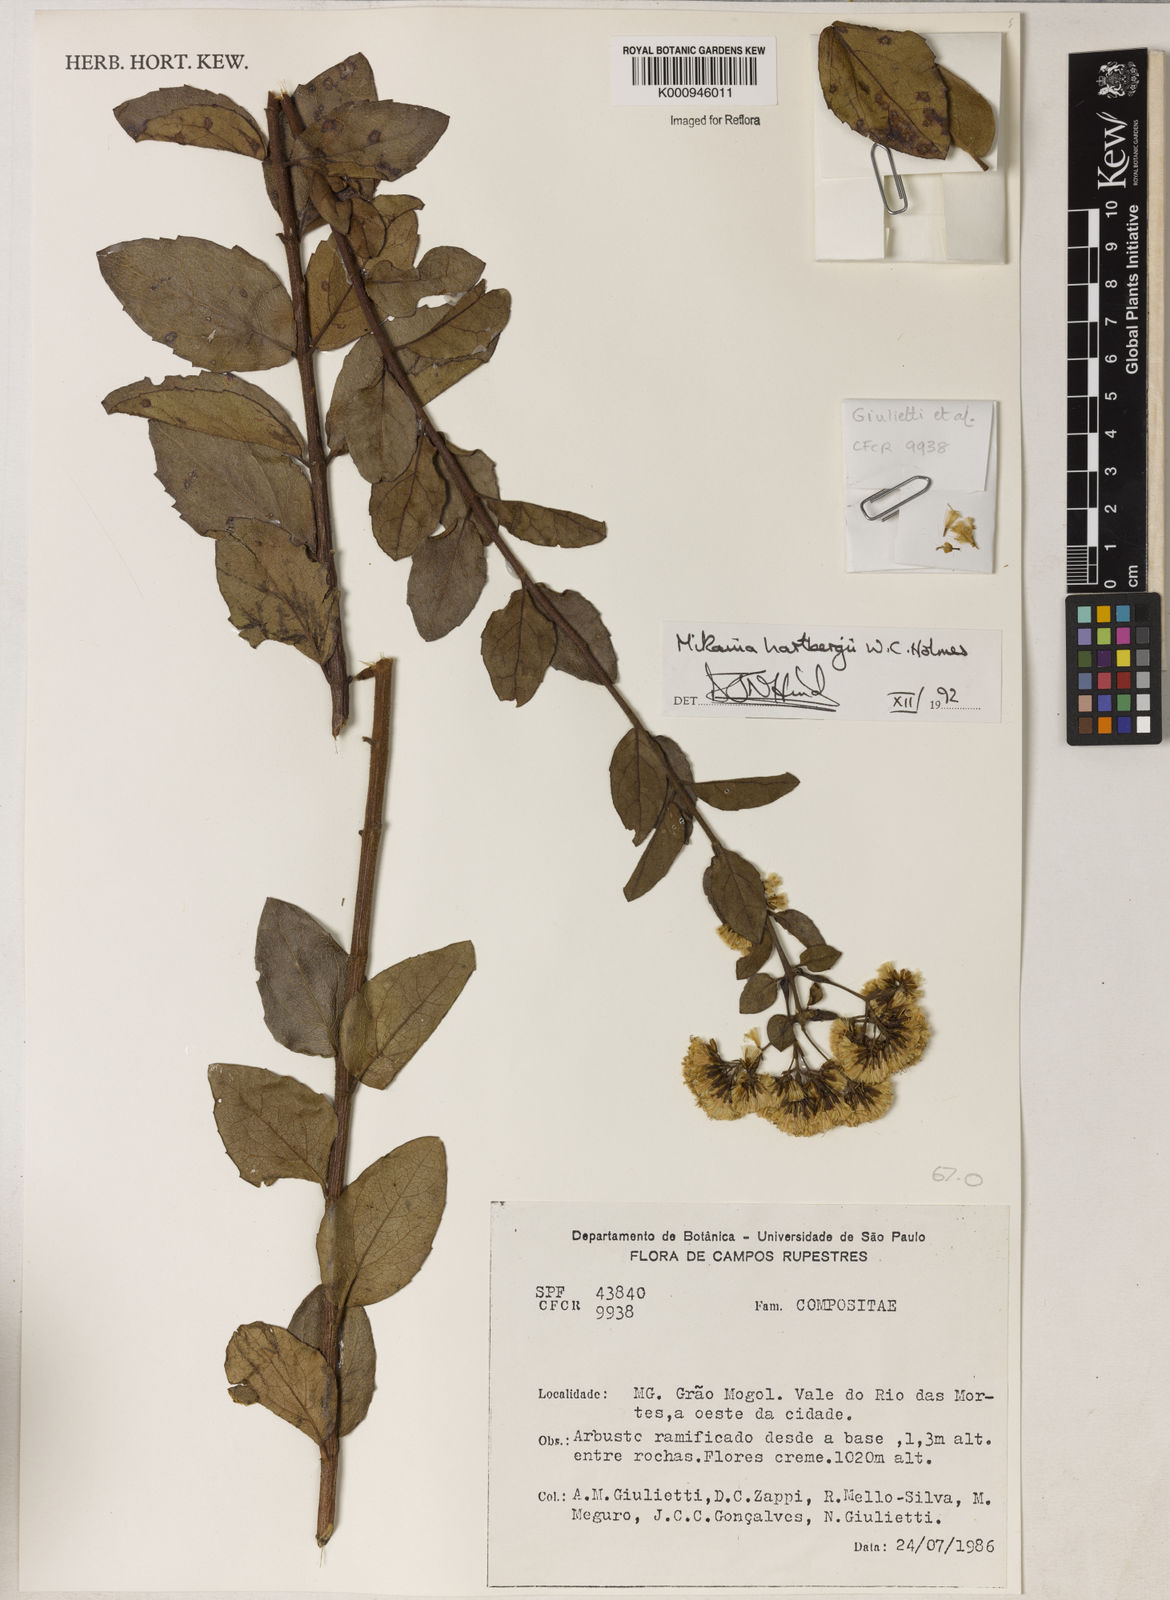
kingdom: Plantae
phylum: Tracheophyta
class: Magnoliopsida
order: Asterales
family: Asteraceae
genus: Mikania
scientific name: Mikania hartbergii
